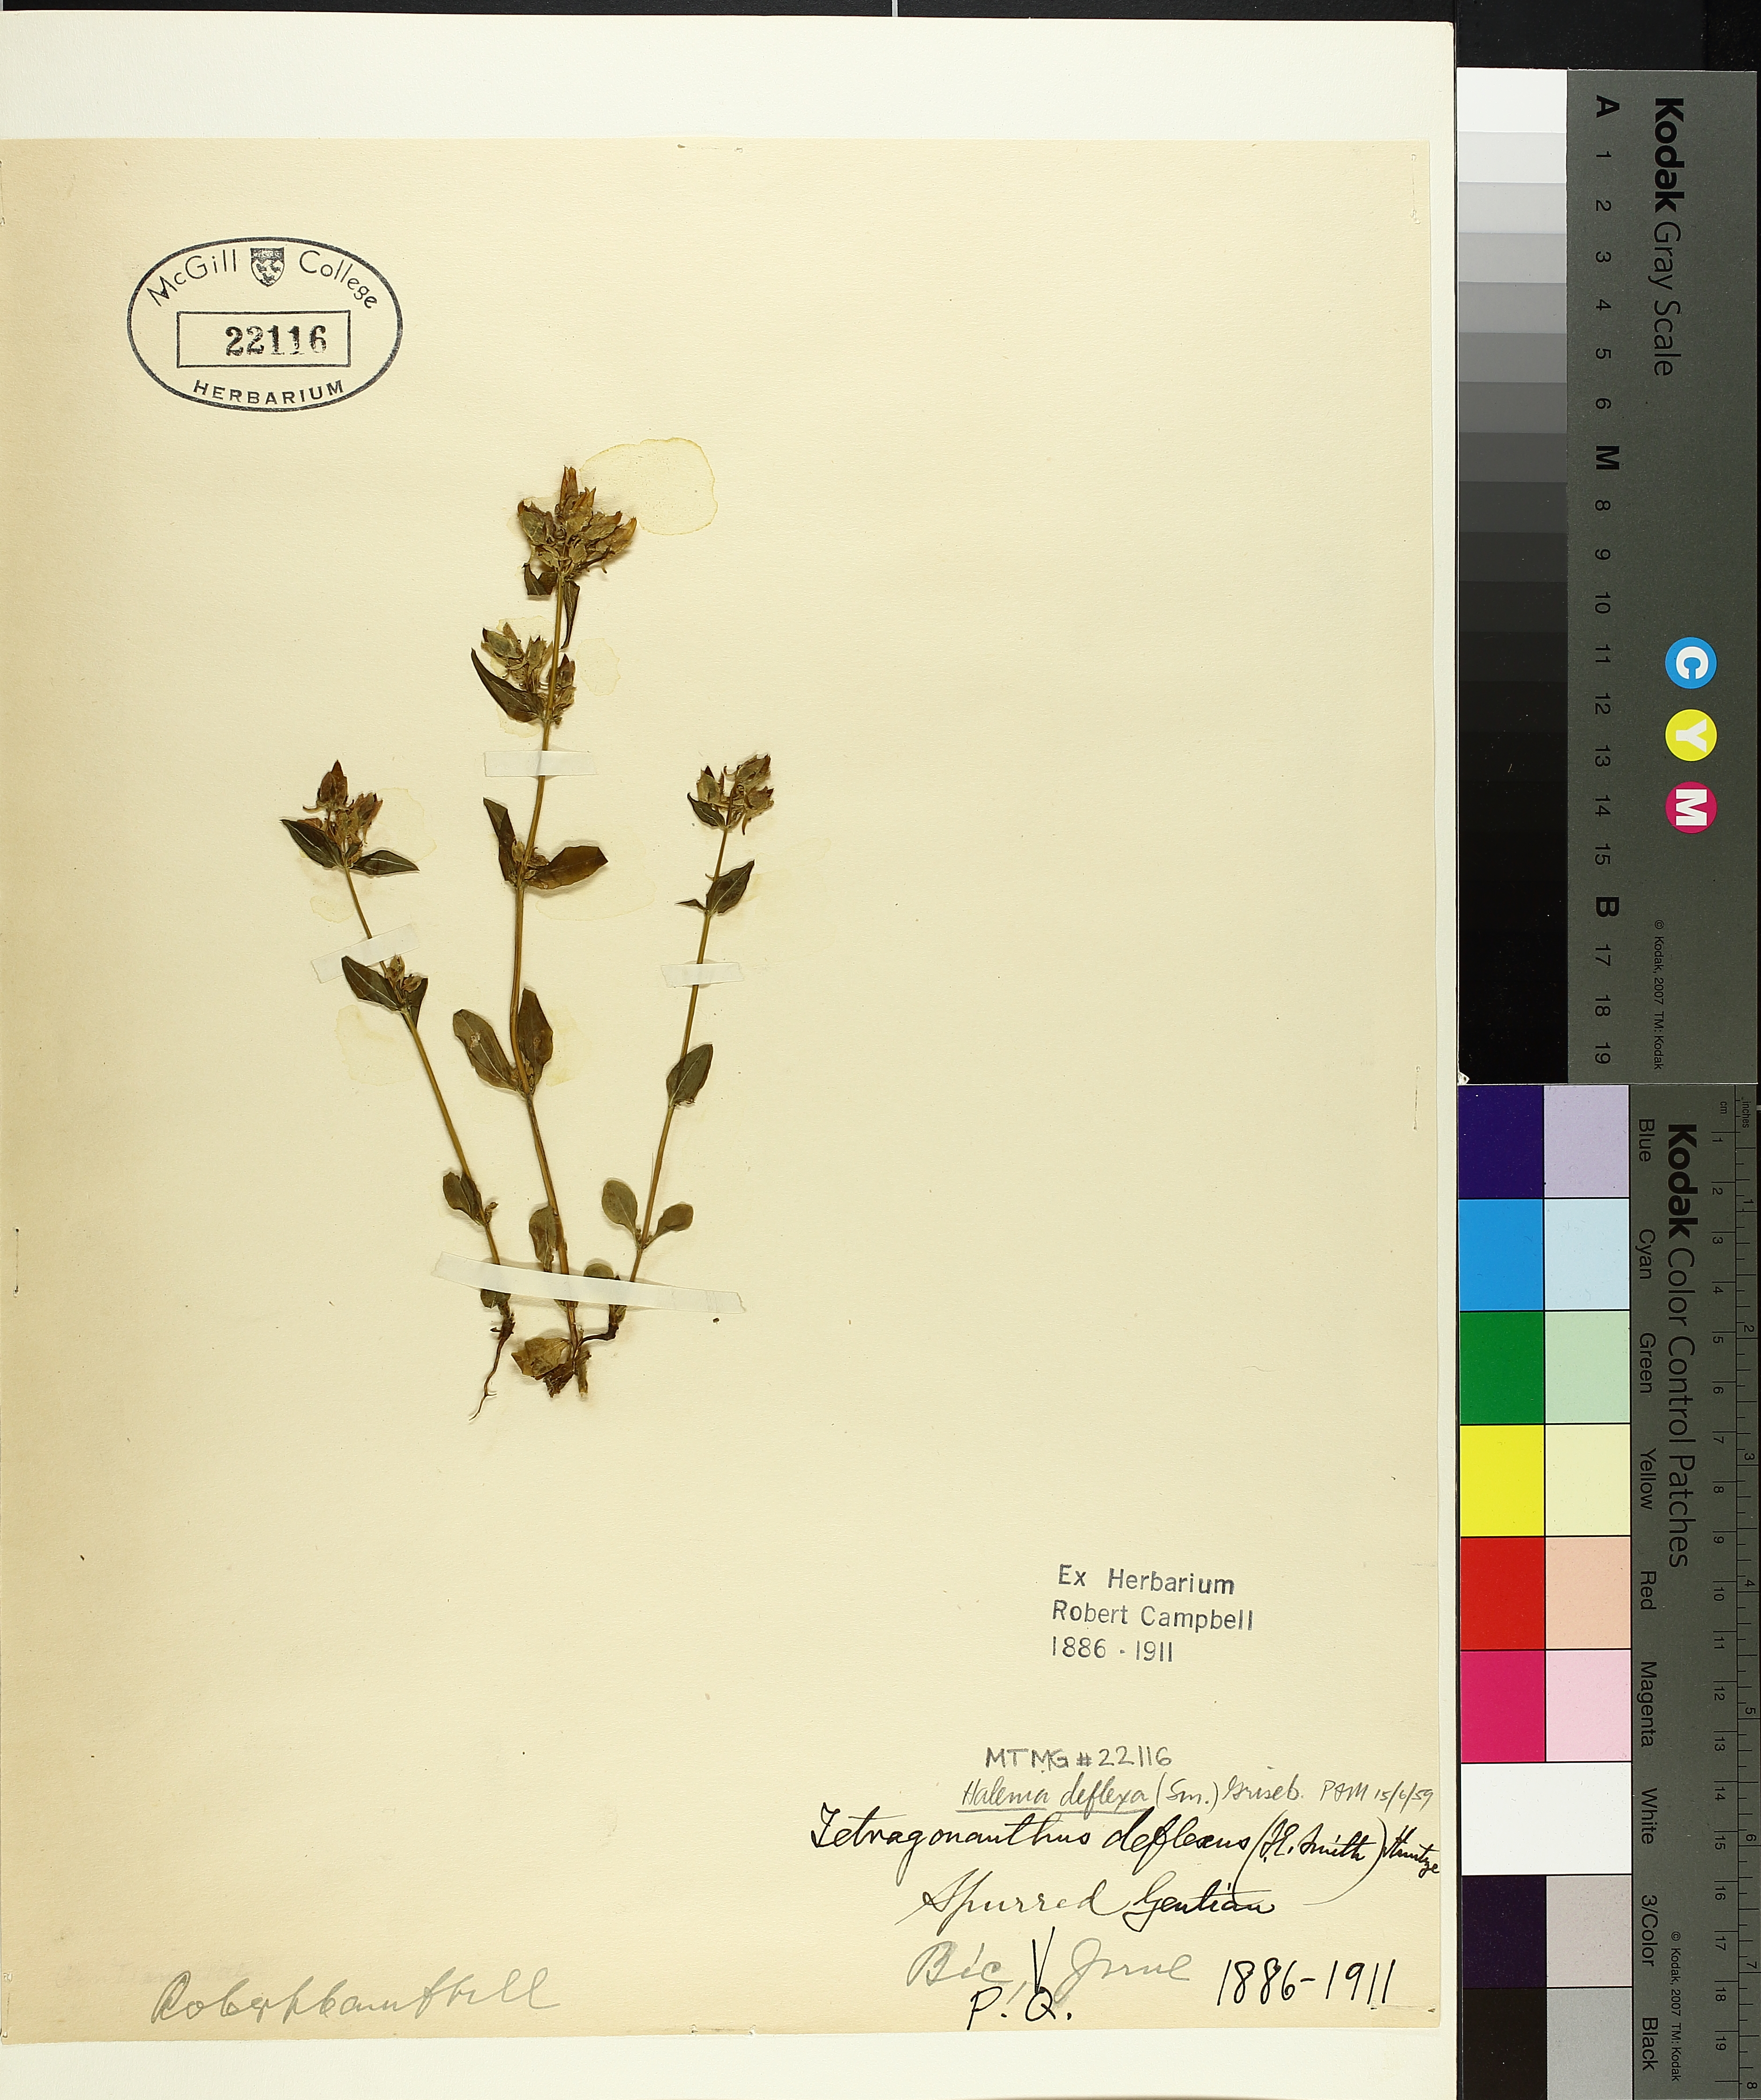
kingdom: Plantae
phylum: Tracheophyta
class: Magnoliopsida
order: Gentianales
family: Gentianaceae
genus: Halenia
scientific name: Halenia deflexa
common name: American spurred gentian
